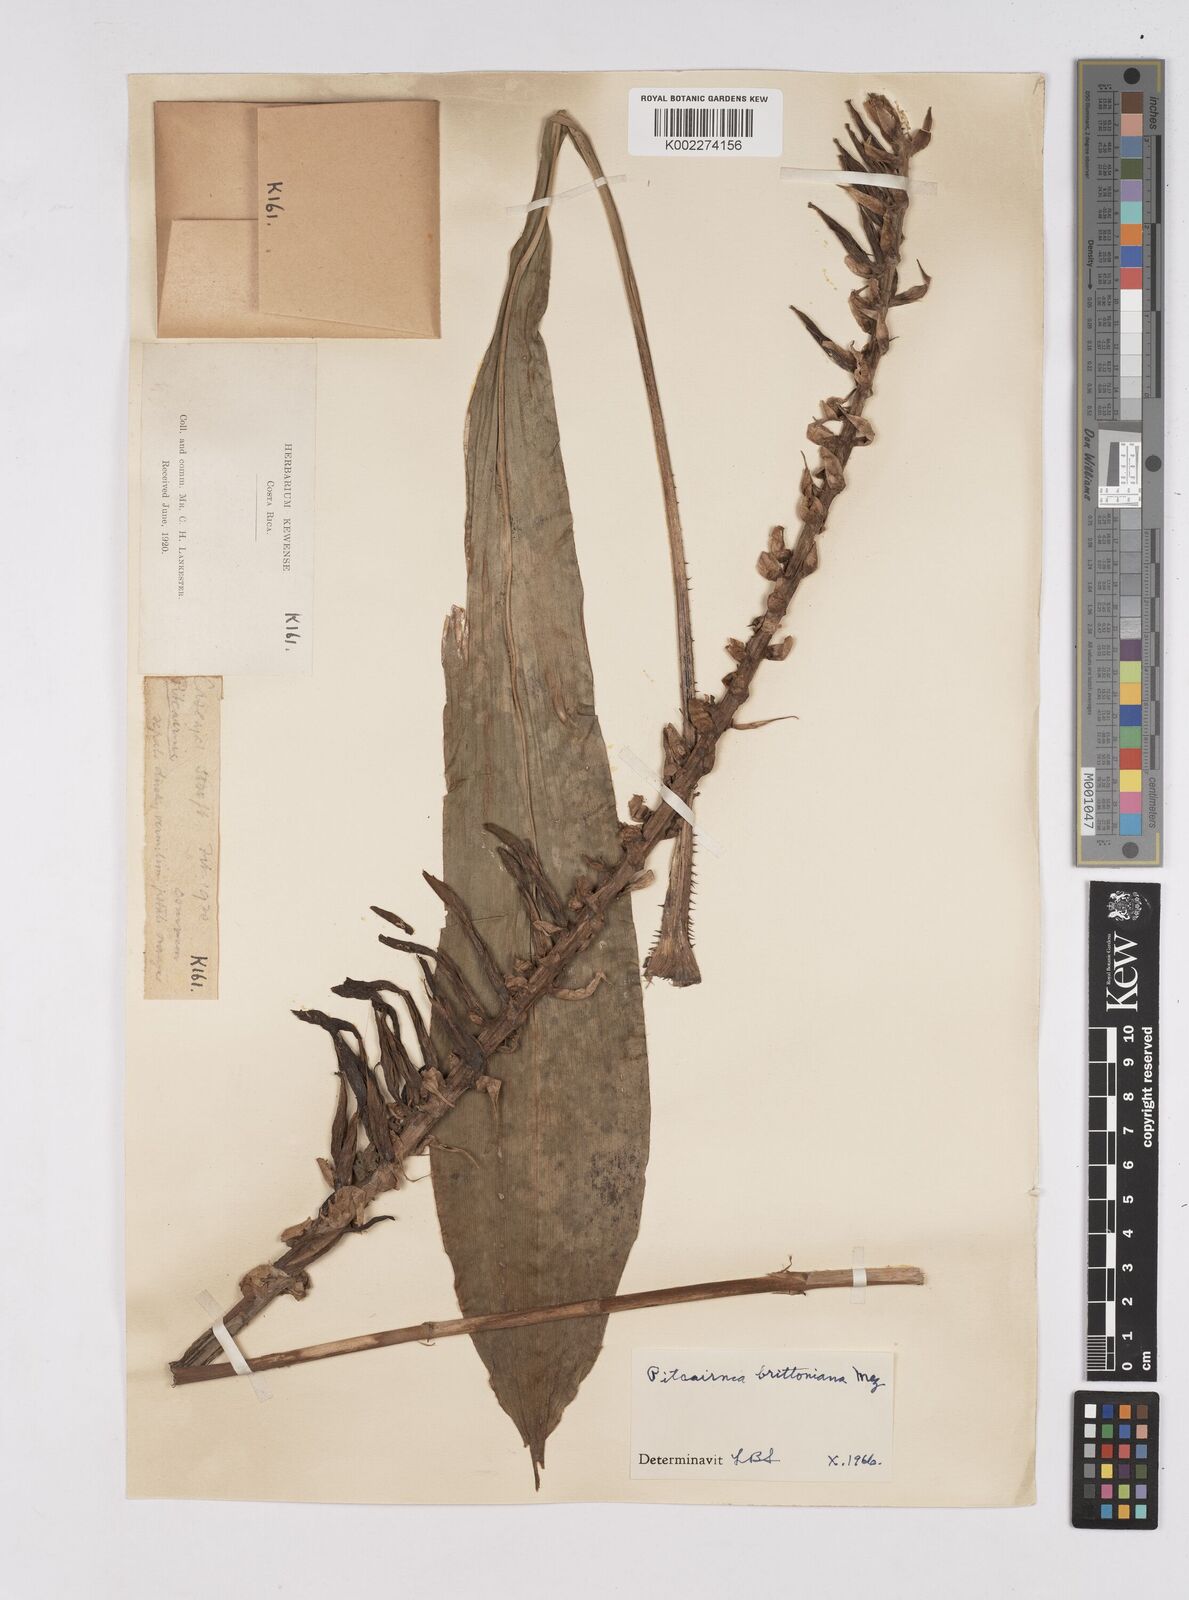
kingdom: Plantae
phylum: Tracheophyta
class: Liliopsida
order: Poales
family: Bromeliaceae
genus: Pitcairnia
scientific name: Pitcairnia brittoniana
